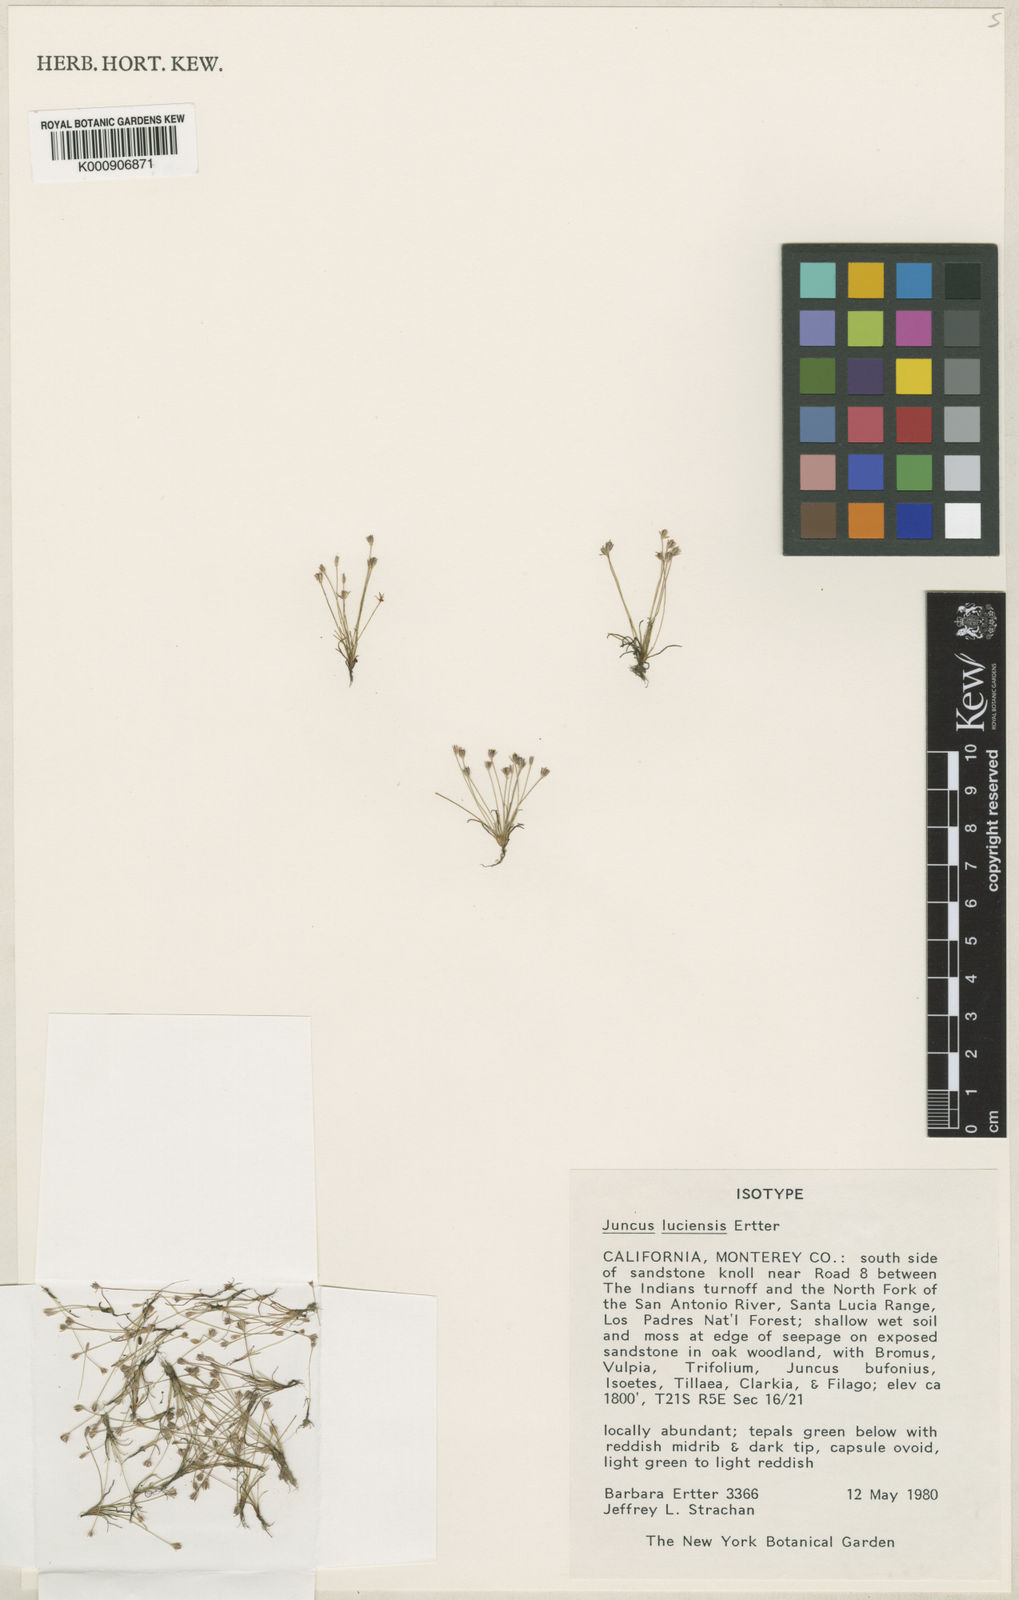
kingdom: Plantae
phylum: Tracheophyta
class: Liliopsida
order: Poales
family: Juncaceae
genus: Juncus
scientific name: Juncus luciensis
